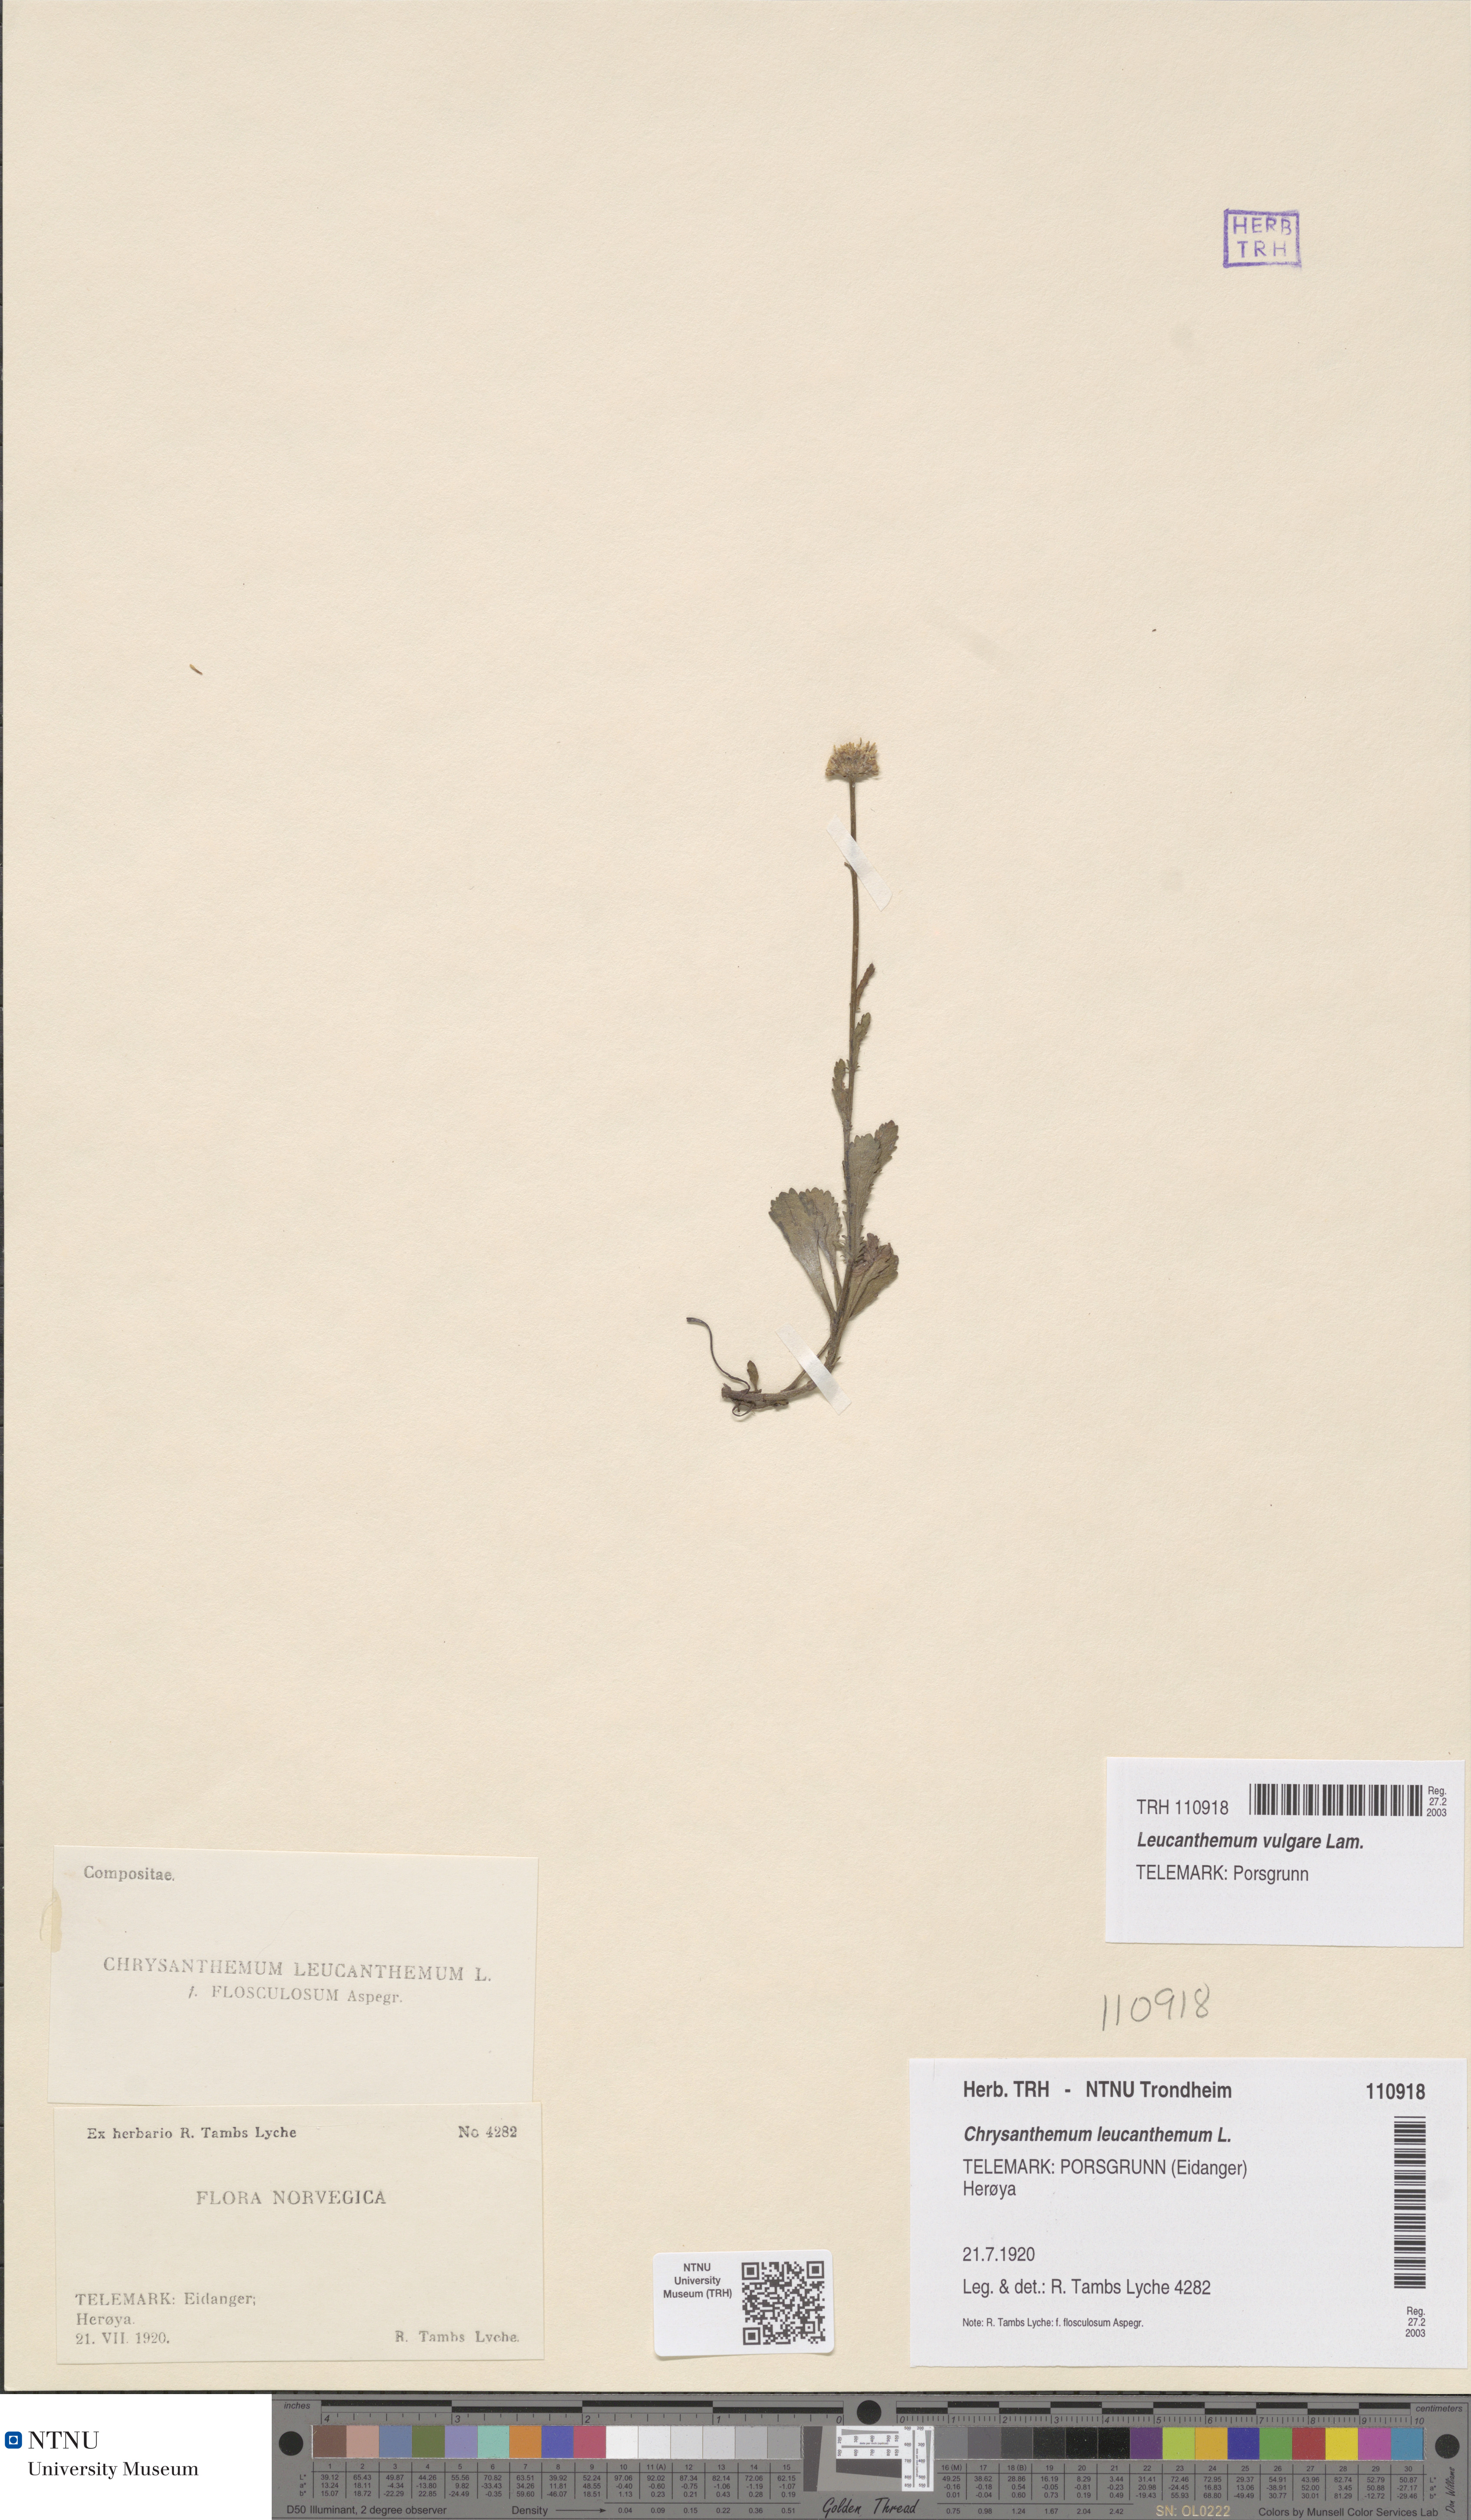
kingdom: Plantae
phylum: Tracheophyta
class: Magnoliopsida
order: Asterales
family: Asteraceae
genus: Leucanthemum
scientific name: Leucanthemum vulgare
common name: Oxeye daisy
